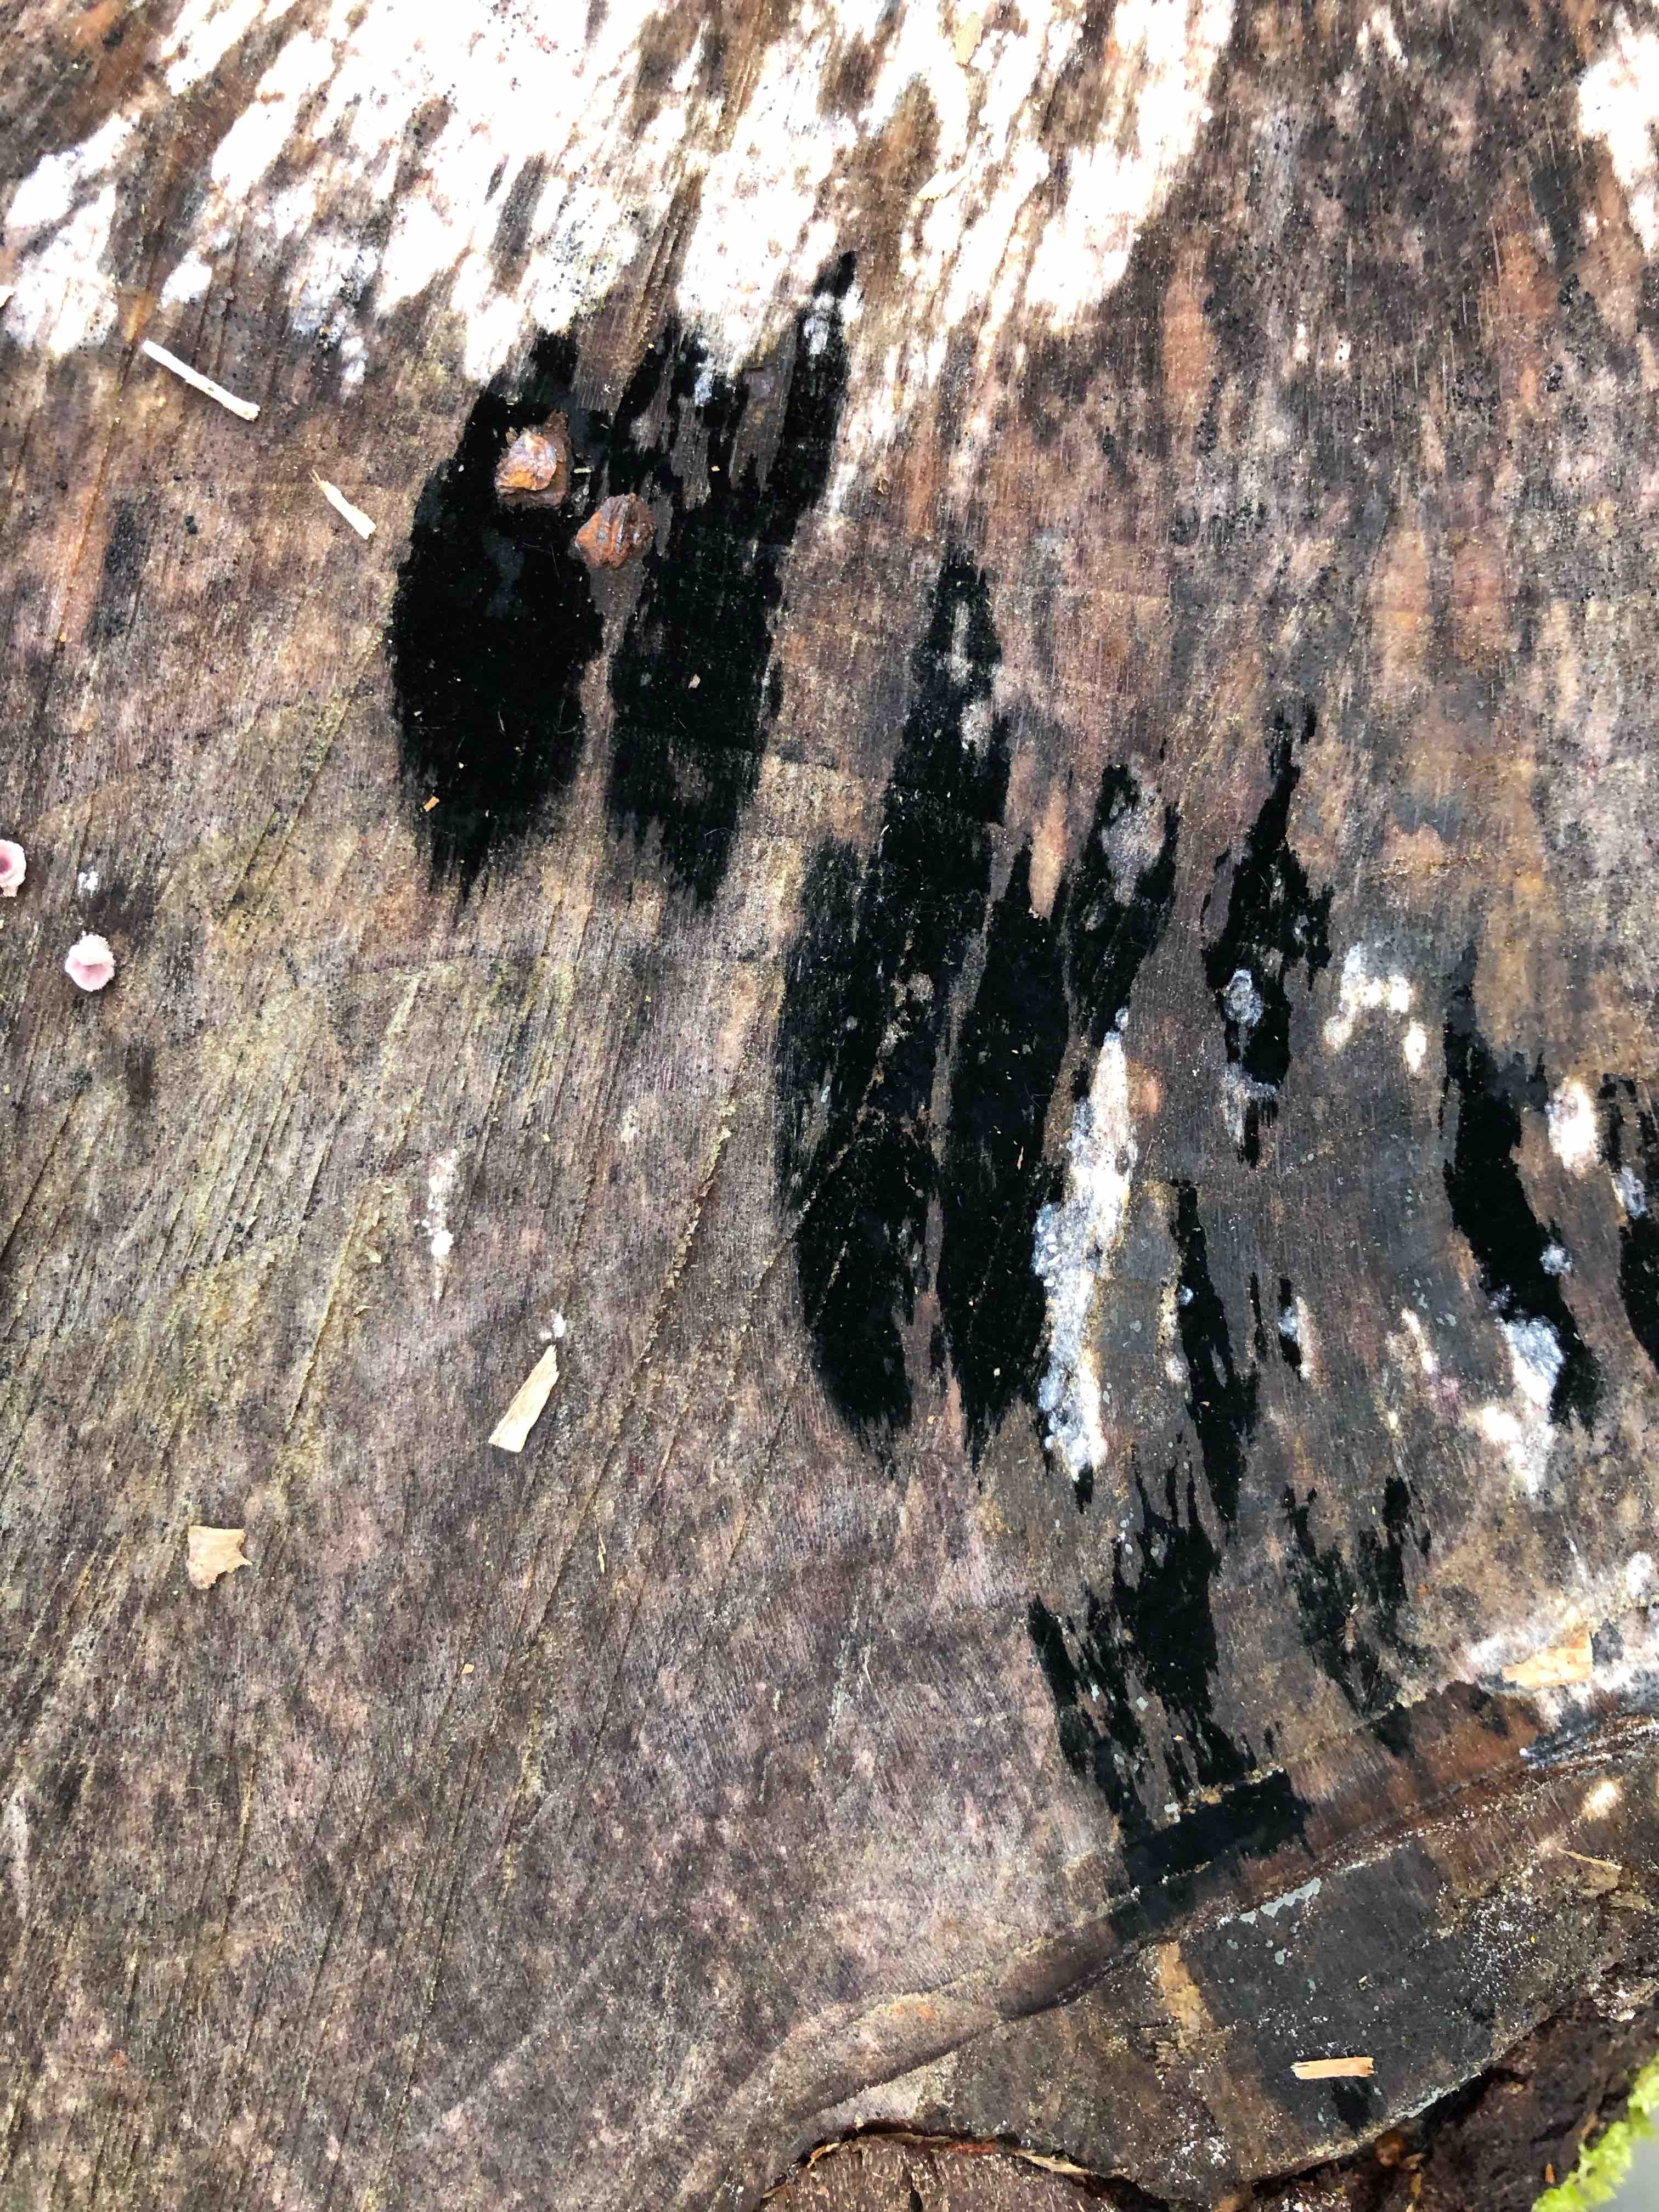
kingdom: Fungi
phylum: Ascomycota
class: Leotiomycetes
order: Helotiales
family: Helotiaceae
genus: Bispora
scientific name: Bispora pallescens
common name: måtte-snitskive
